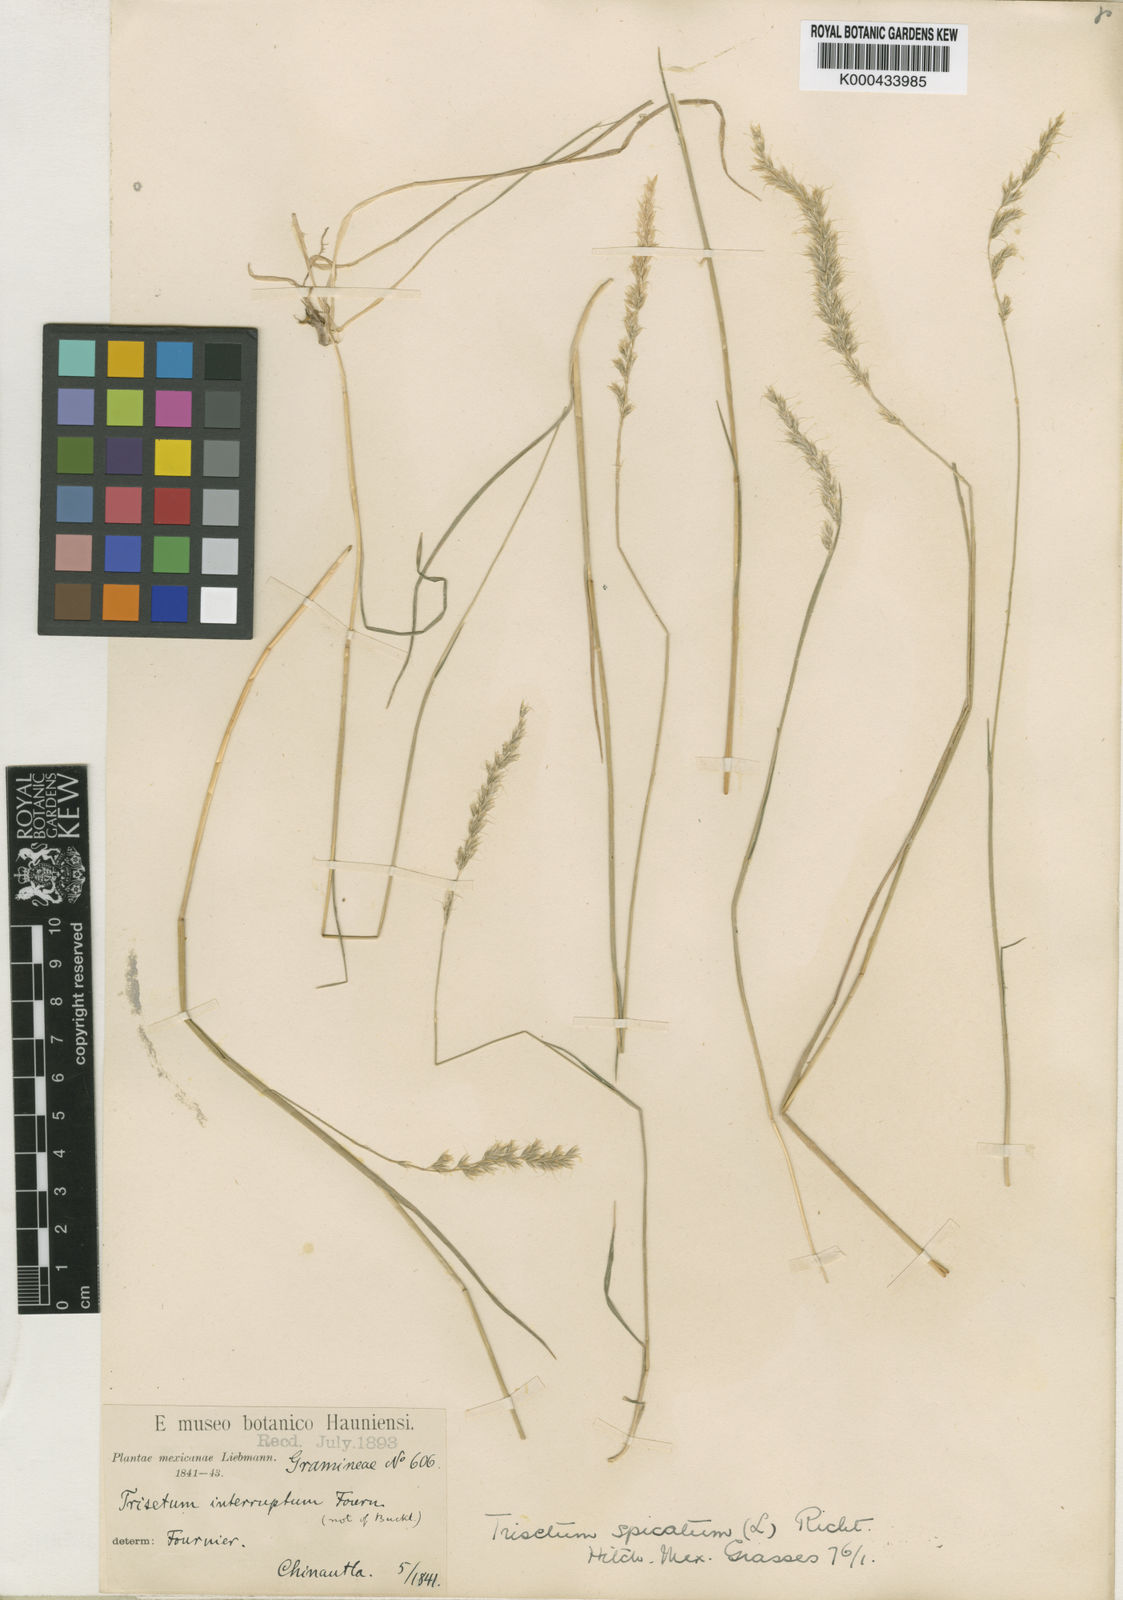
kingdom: Plantae
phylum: Tracheophyta
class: Liliopsida
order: Poales
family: Poaceae
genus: Koeleria
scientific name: Koeleria spicata
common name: Mountain trisetum
